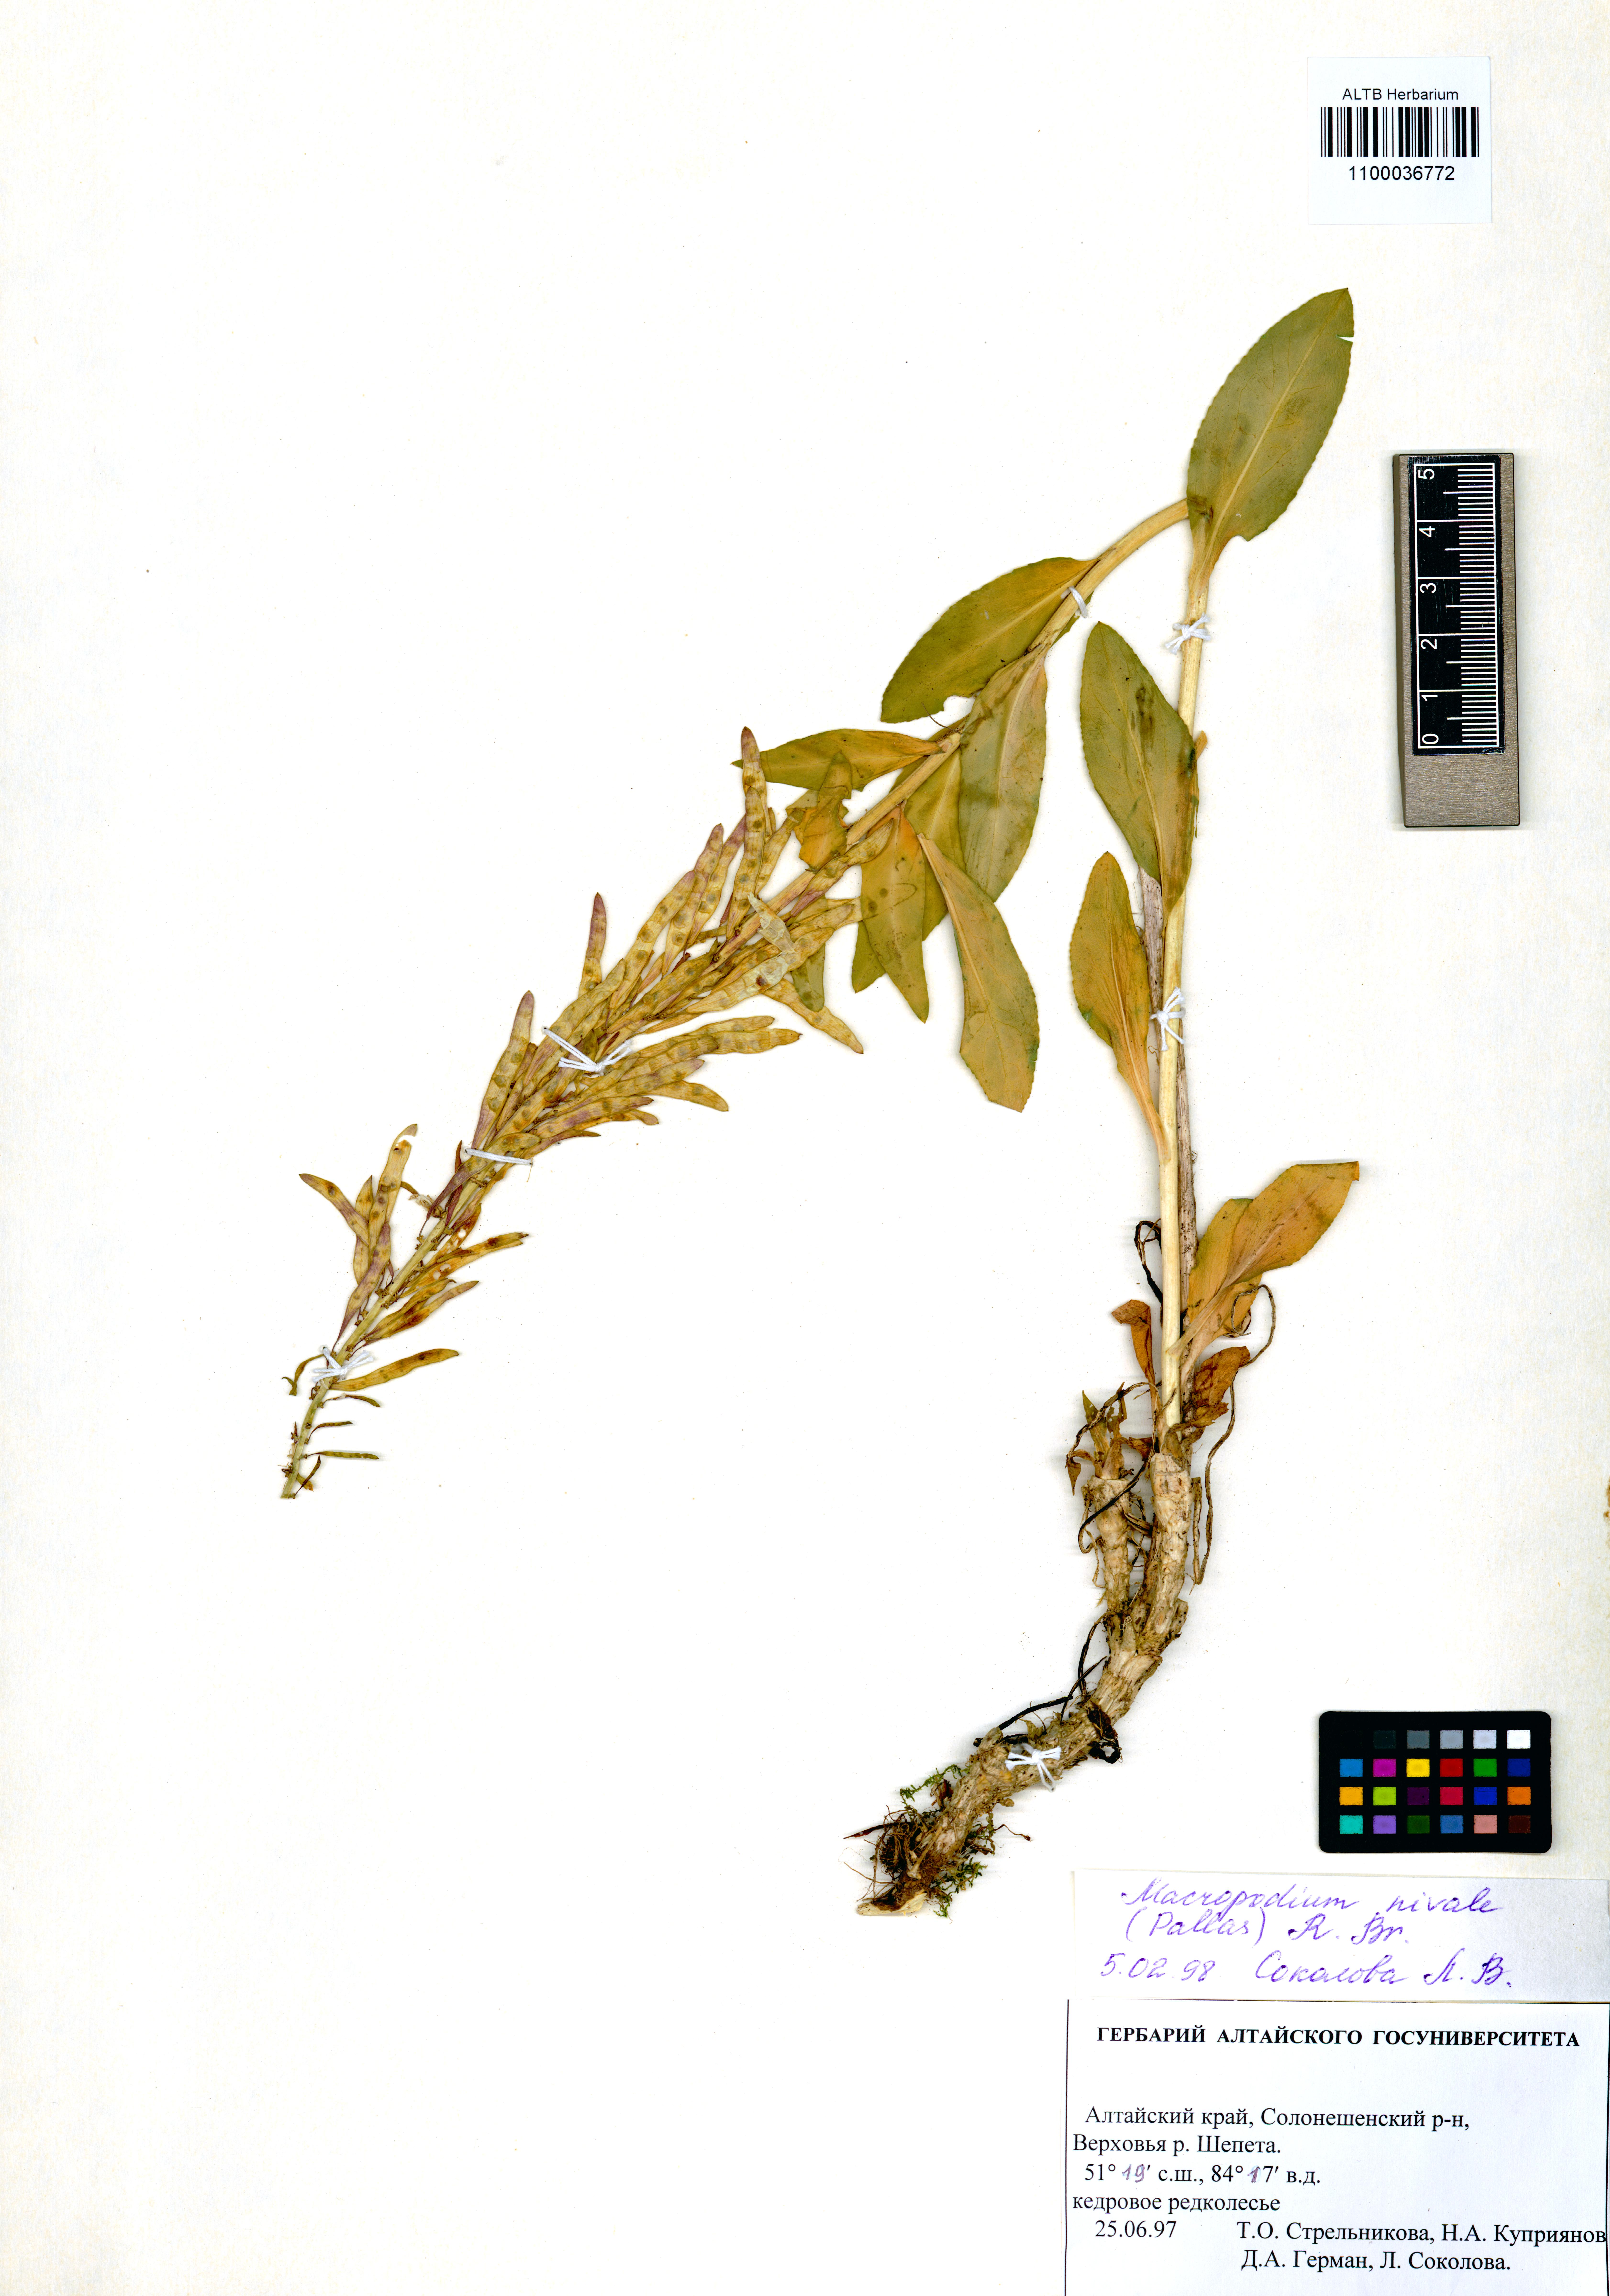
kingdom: Plantae
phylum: Tracheophyta
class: Magnoliopsida
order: Brassicales
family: Brassicaceae
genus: Macropodium
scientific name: Macropodium nivale
